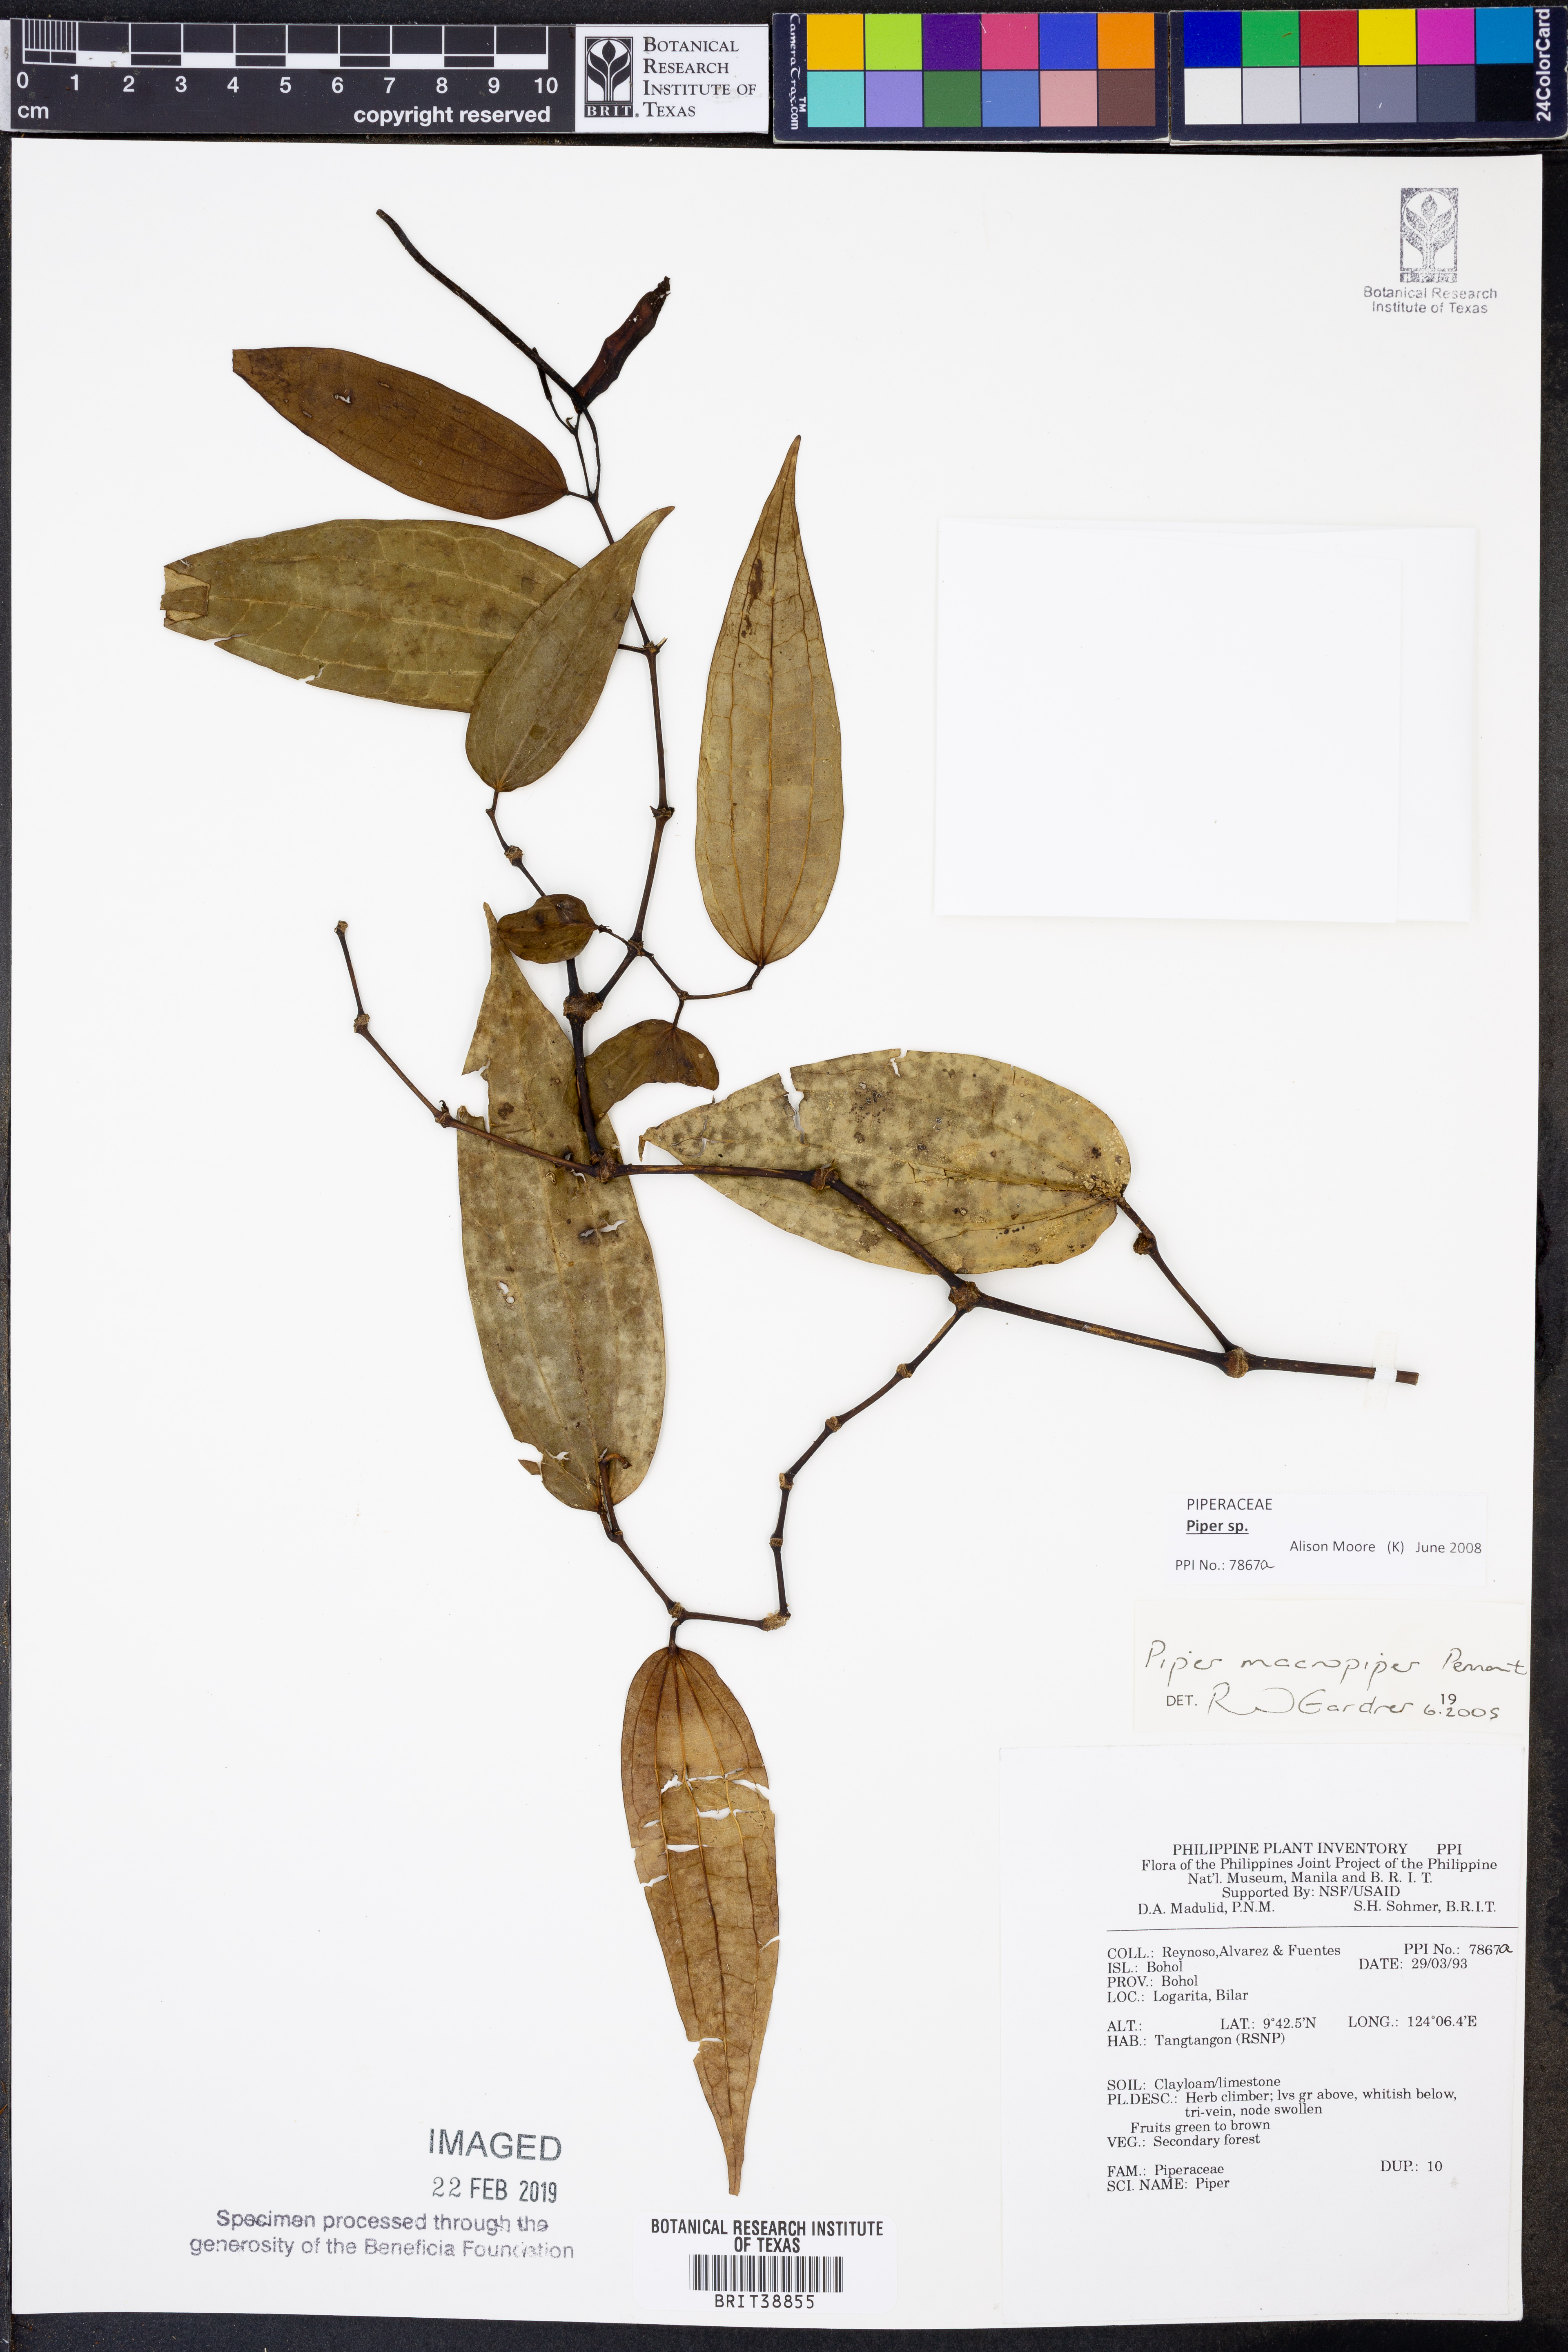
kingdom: Plantae
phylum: Tracheophyta
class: Magnoliopsida
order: Piperales
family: Piperaceae
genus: Piper
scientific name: Piper
